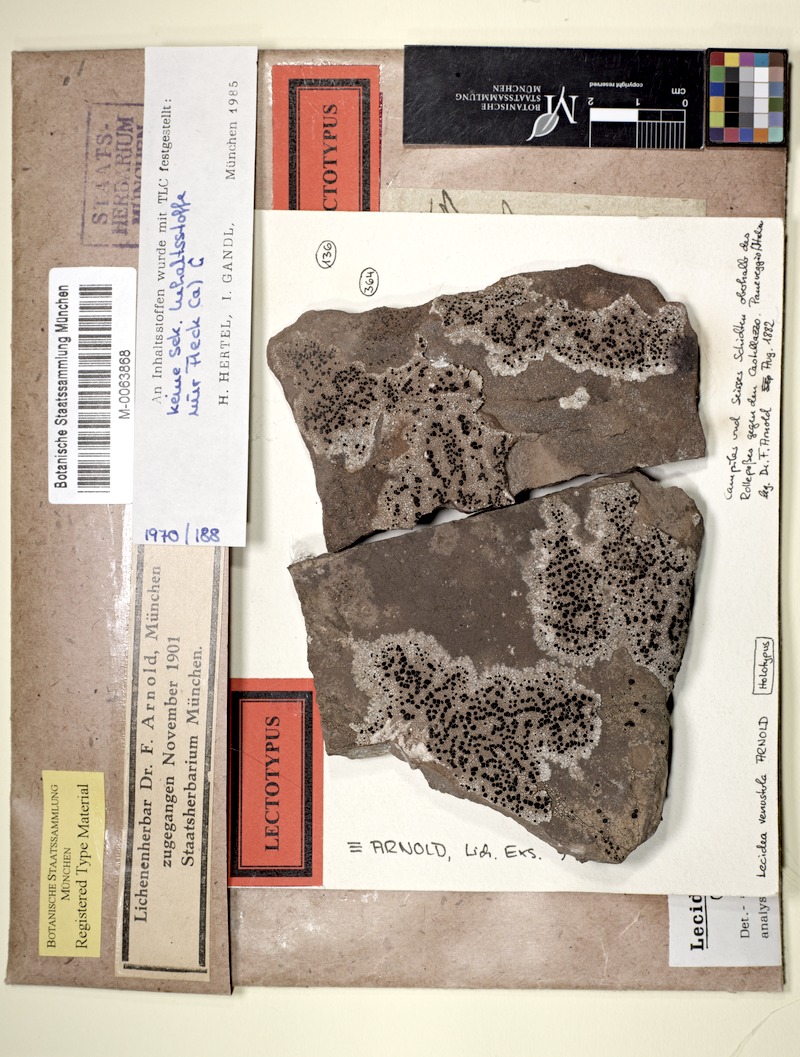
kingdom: Fungi
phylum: Ascomycota
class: Lecanoromycetes
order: Lecideales
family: Lecideaceae
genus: Lecidea
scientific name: Lecidea confluescens
